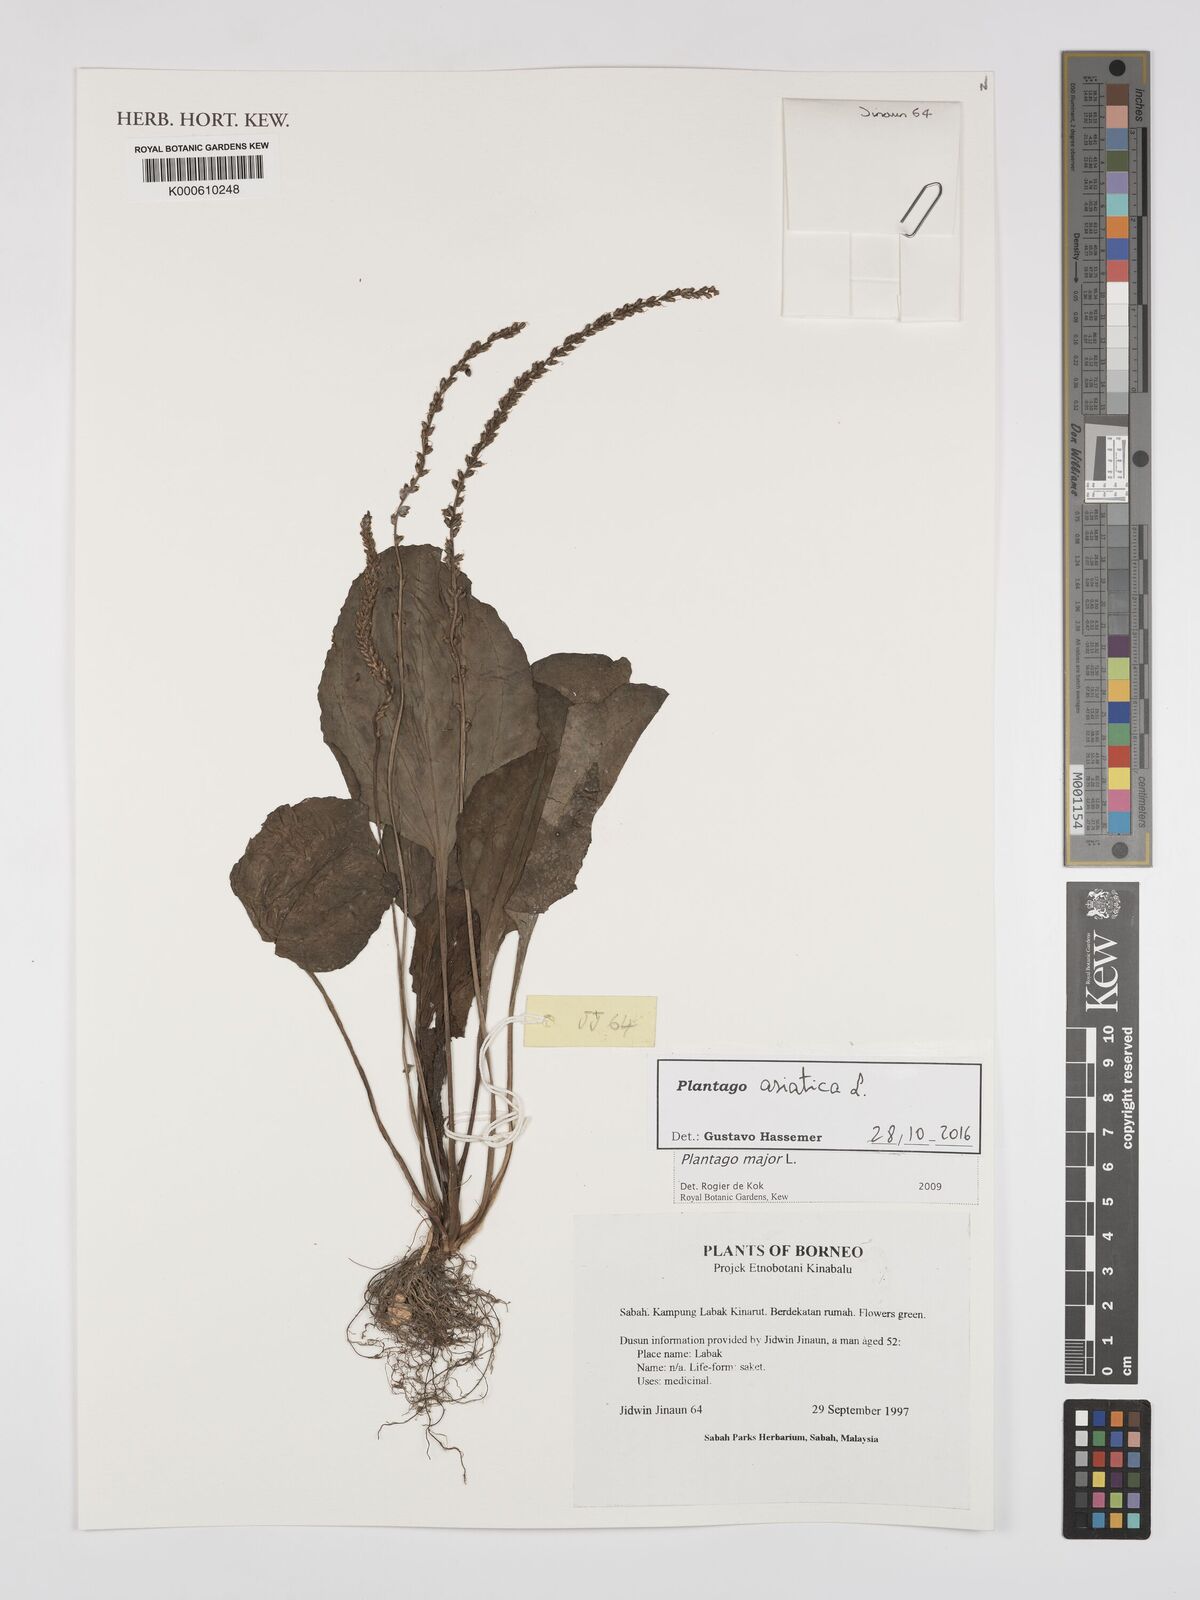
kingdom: Plantae
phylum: Tracheophyta
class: Magnoliopsida
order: Lamiales
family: Plantaginaceae
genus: Plantago
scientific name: Plantago asiatica
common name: Psyllium
